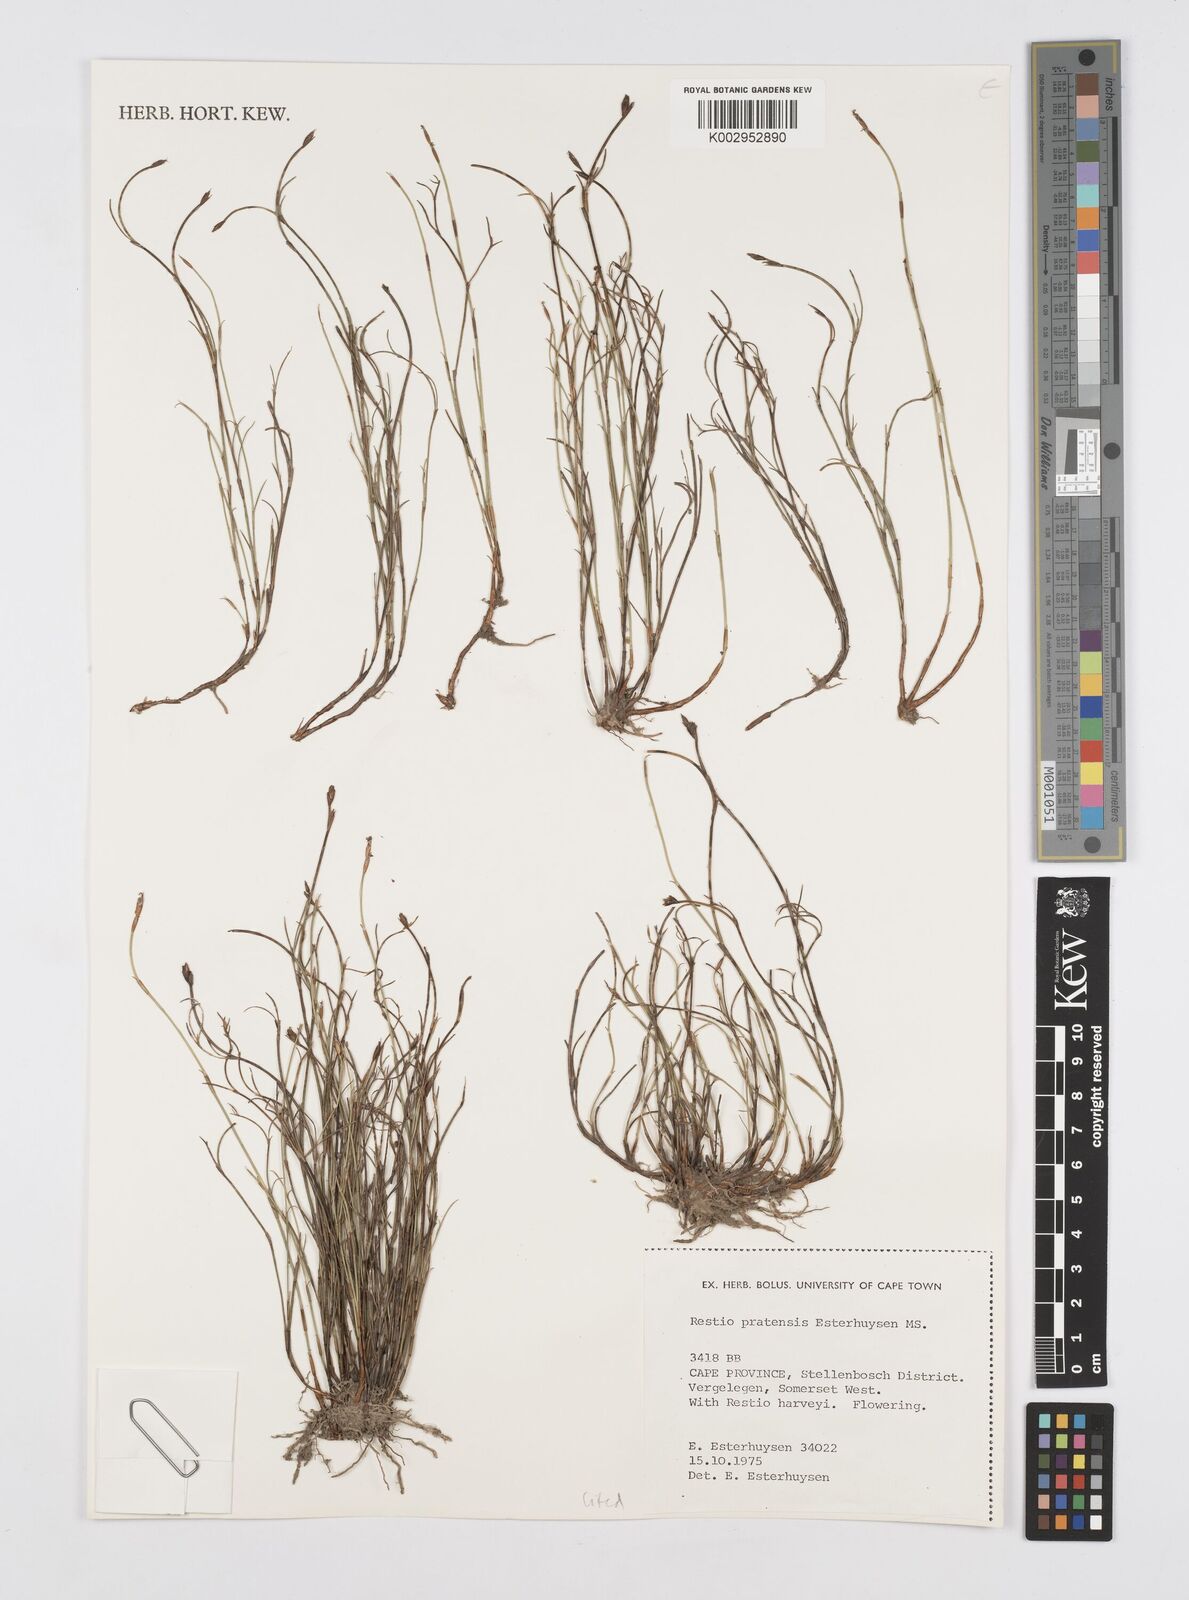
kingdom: Plantae
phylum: Tracheophyta
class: Liliopsida
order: Poales
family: Restionaceae
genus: Restio
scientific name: Restio pratensis
